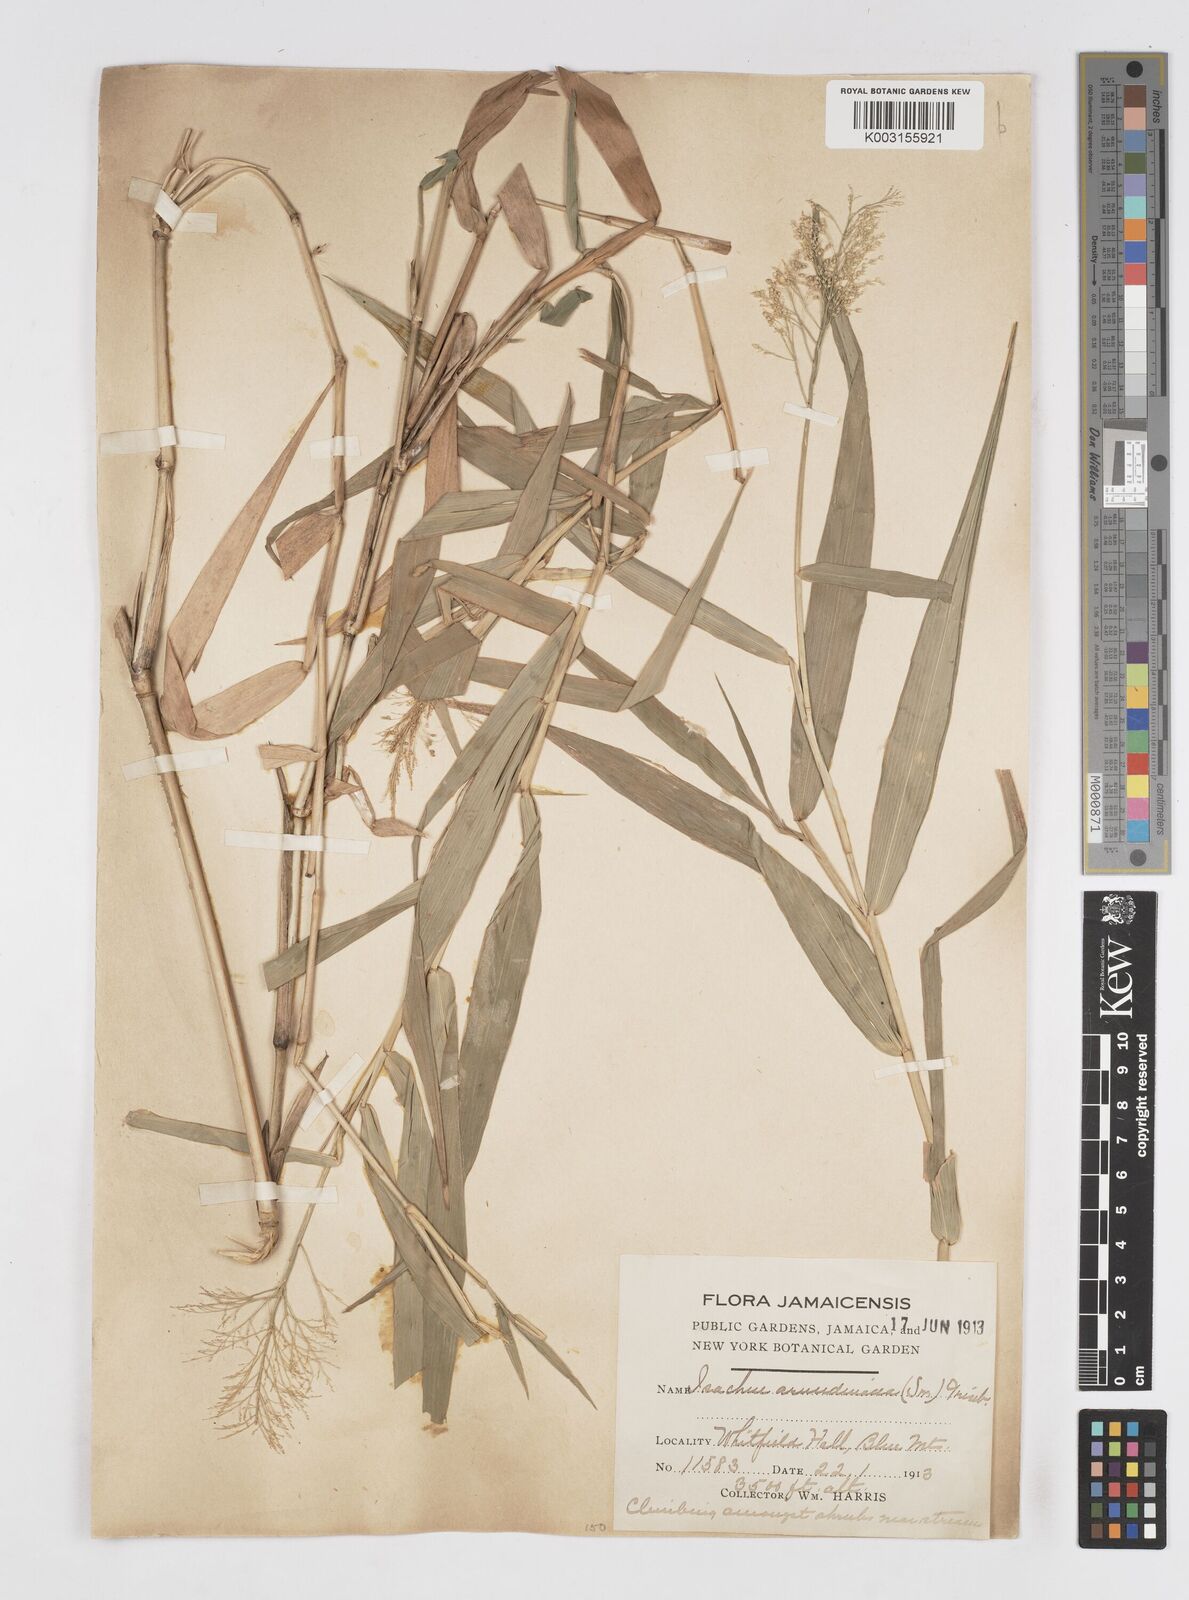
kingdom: Plantae
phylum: Tracheophyta
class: Liliopsida
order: Poales
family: Poaceae
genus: Isachne
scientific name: Isachne arundinacea
